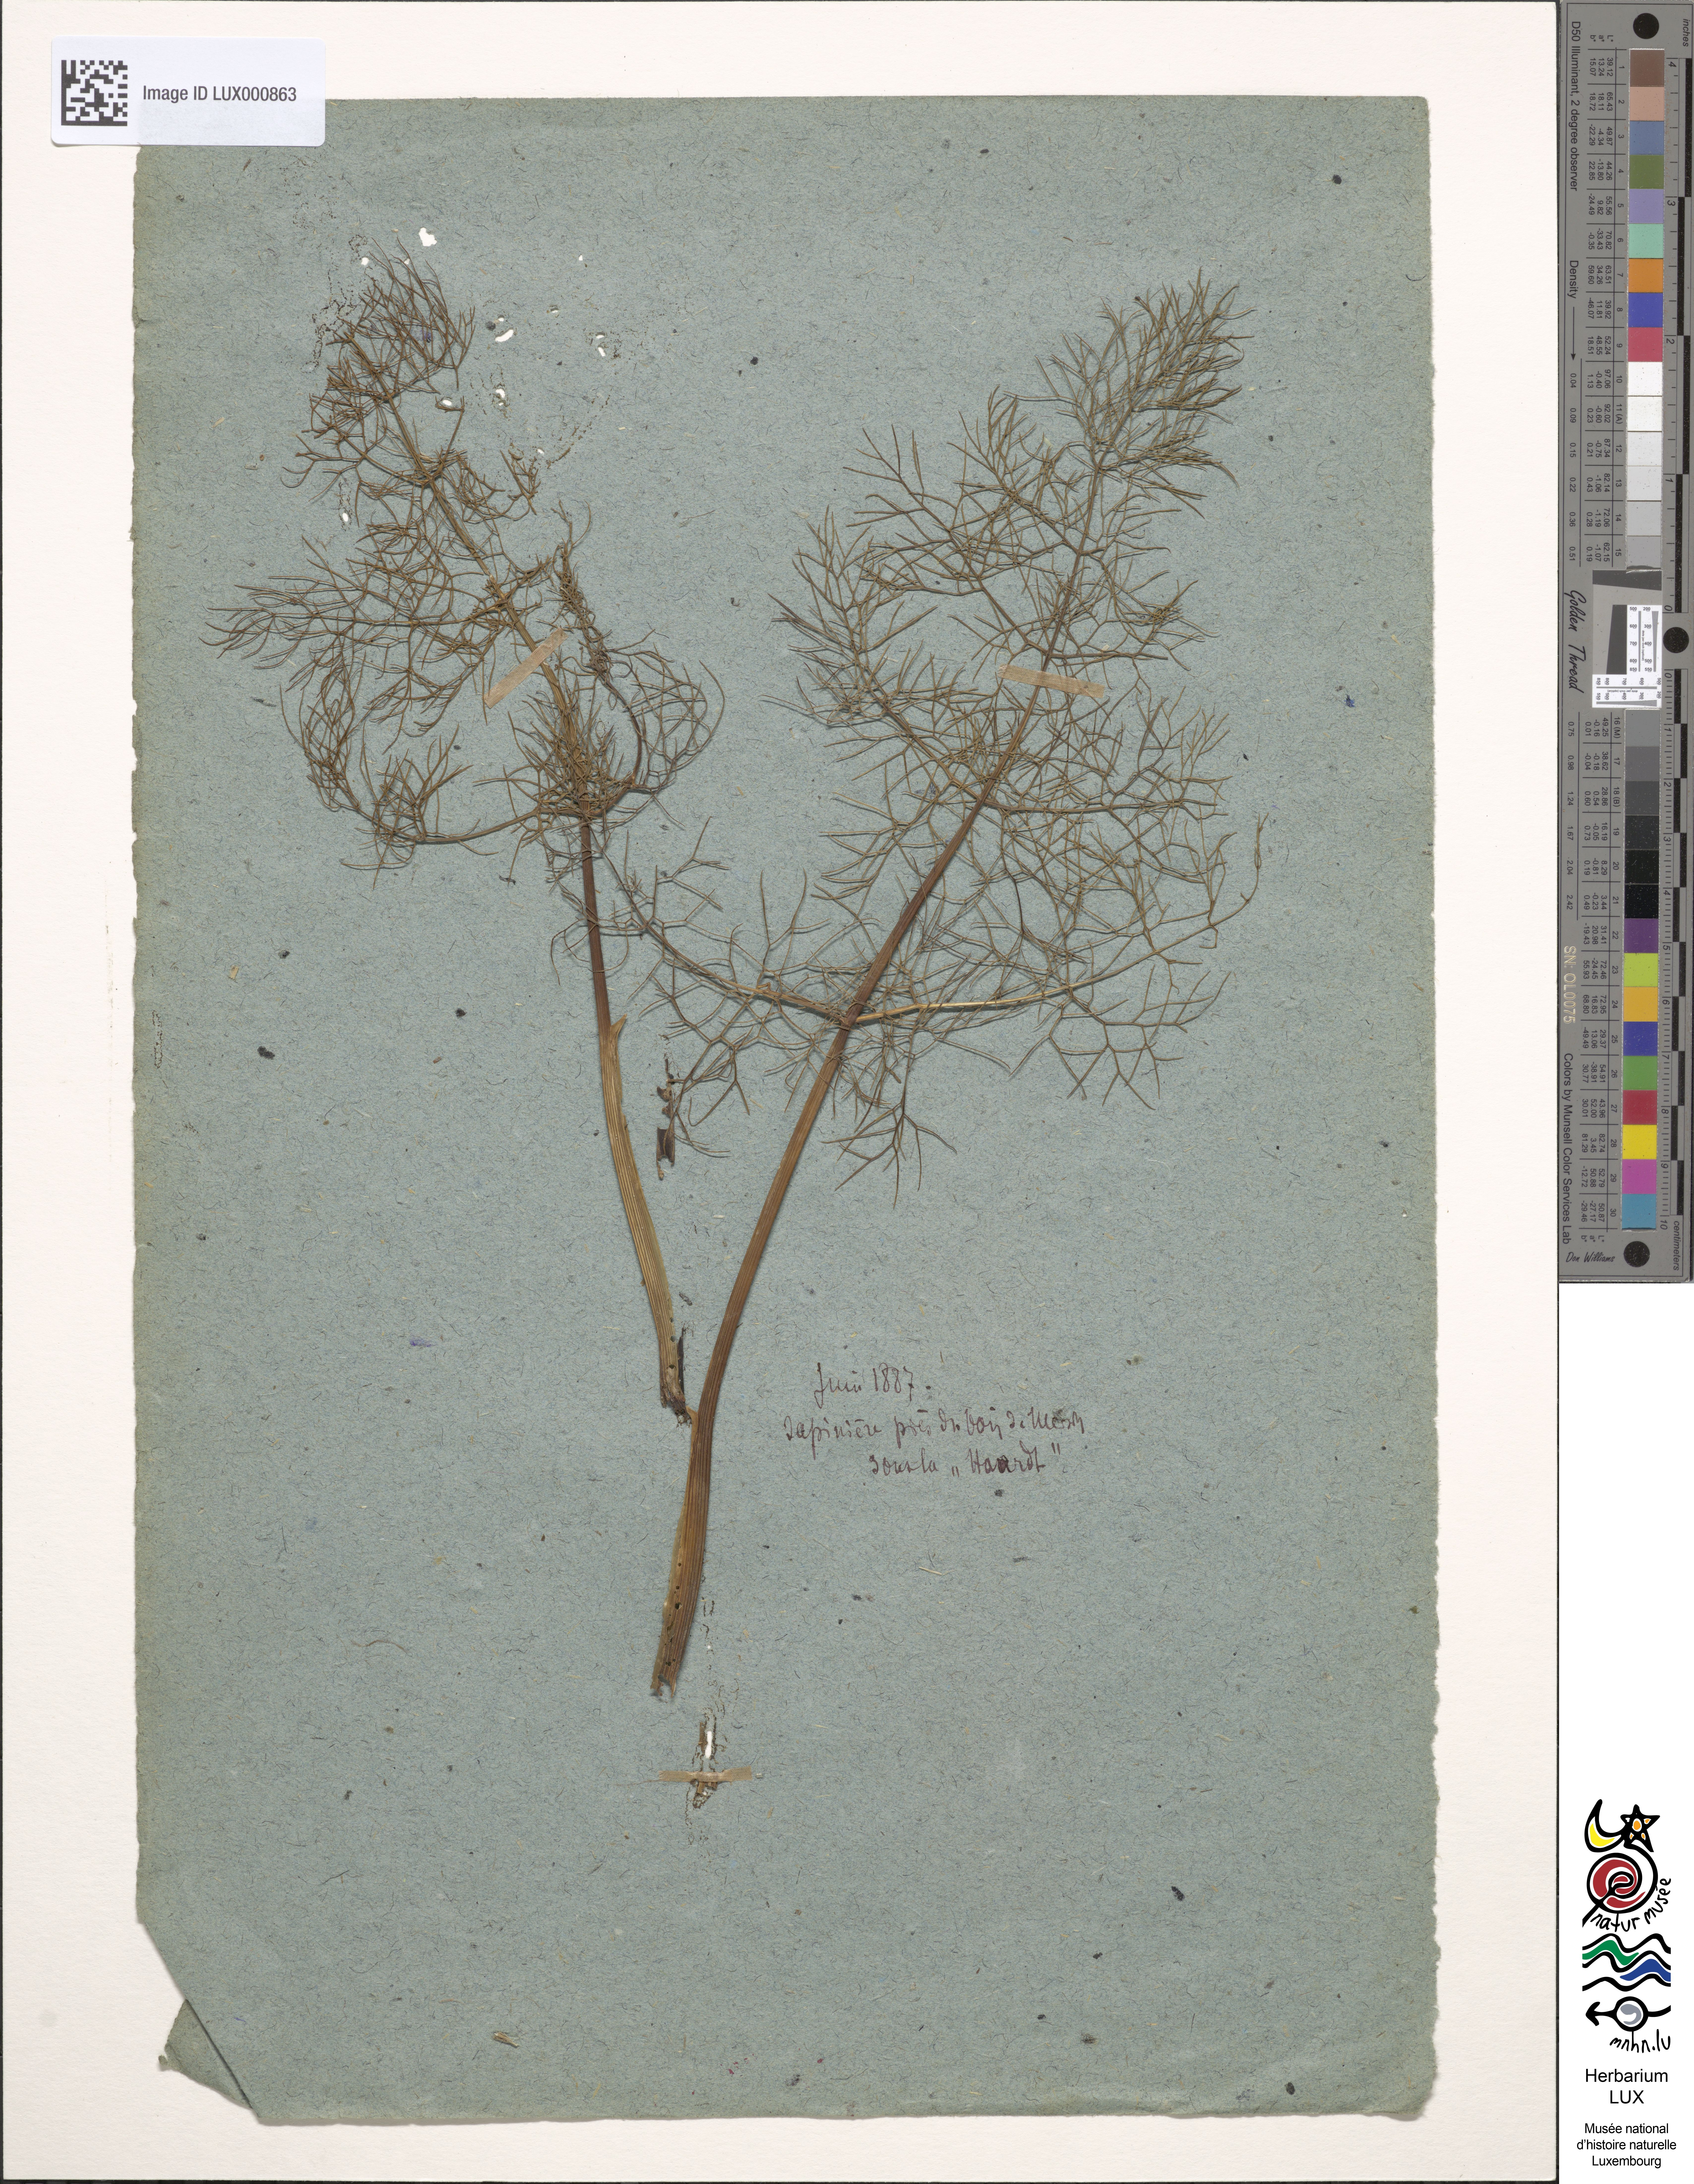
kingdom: Plantae
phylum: Tracheophyta
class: Magnoliopsida
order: Apiales
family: Apiaceae
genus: Foeniculum
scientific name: Foeniculum vulgare
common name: Fennel
